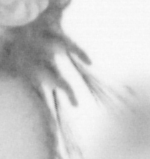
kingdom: Animalia
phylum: Annelida
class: Polychaeta
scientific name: Polychaeta
